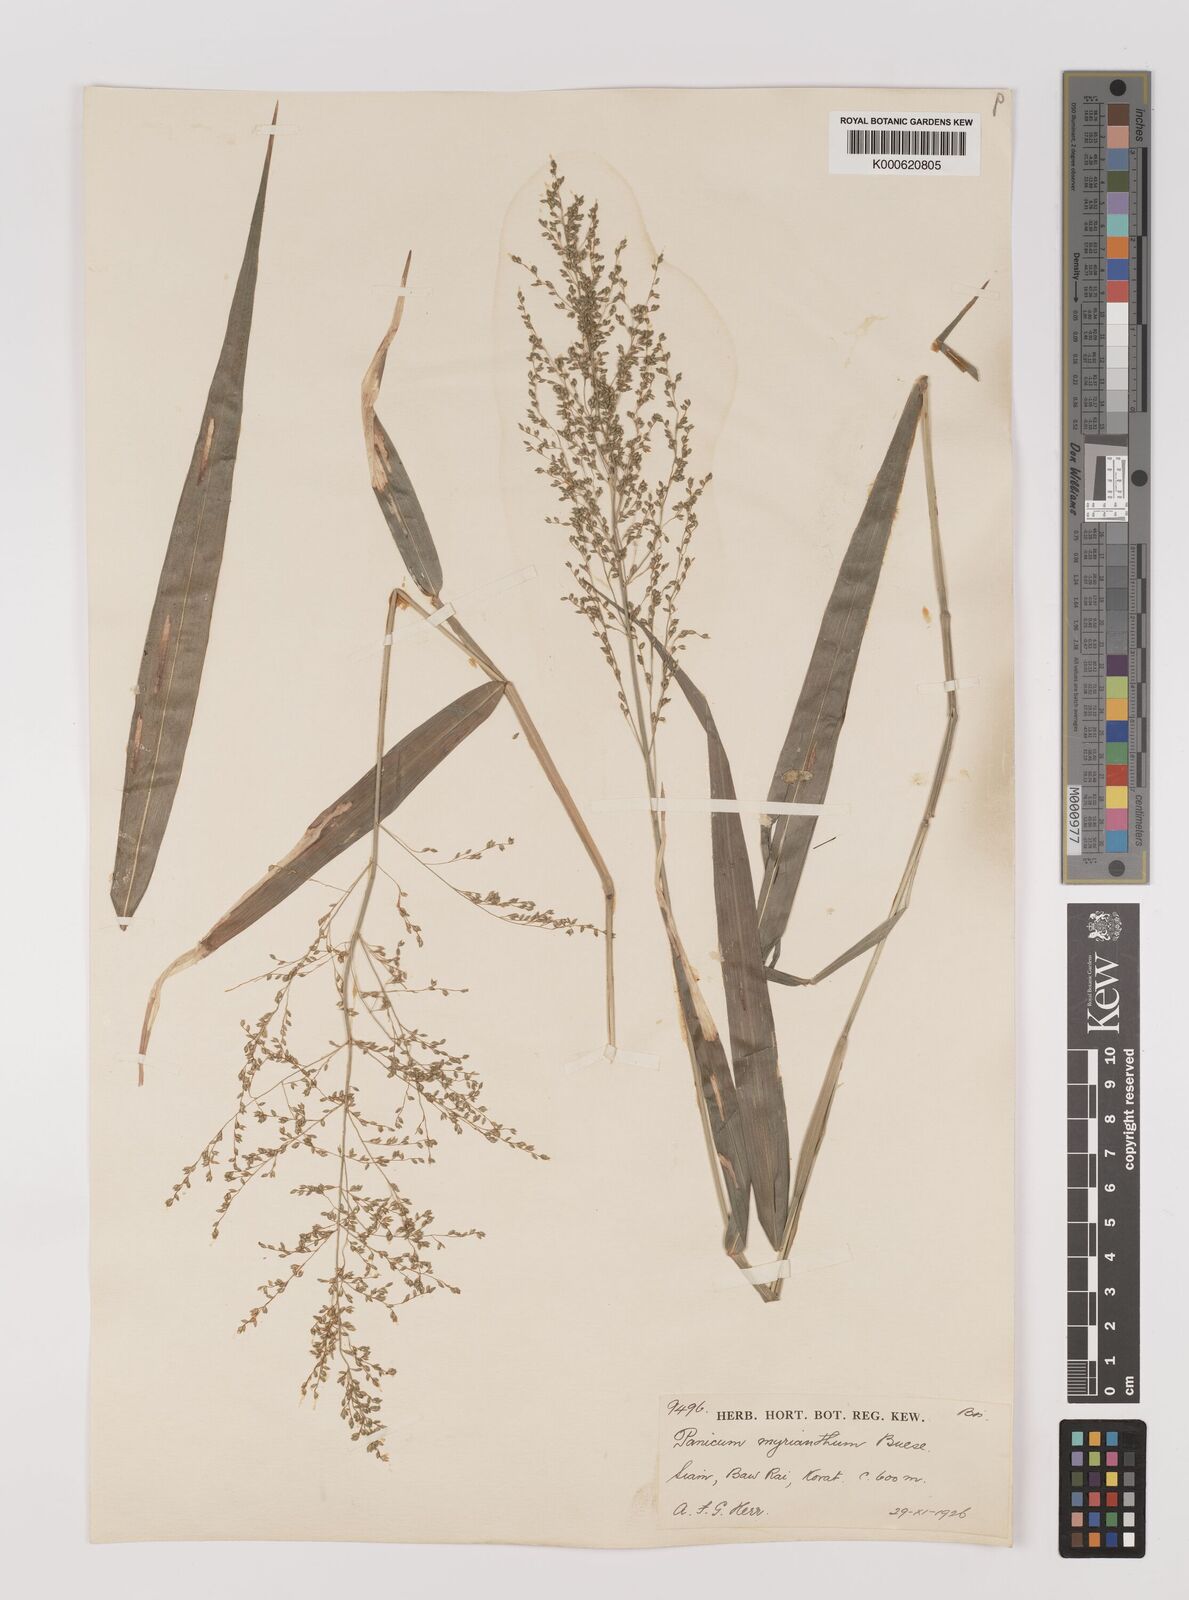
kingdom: Plantae
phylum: Tracheophyta
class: Liliopsida
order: Poales
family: Poaceae
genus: Panicum
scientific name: Panicum sarmentosum
